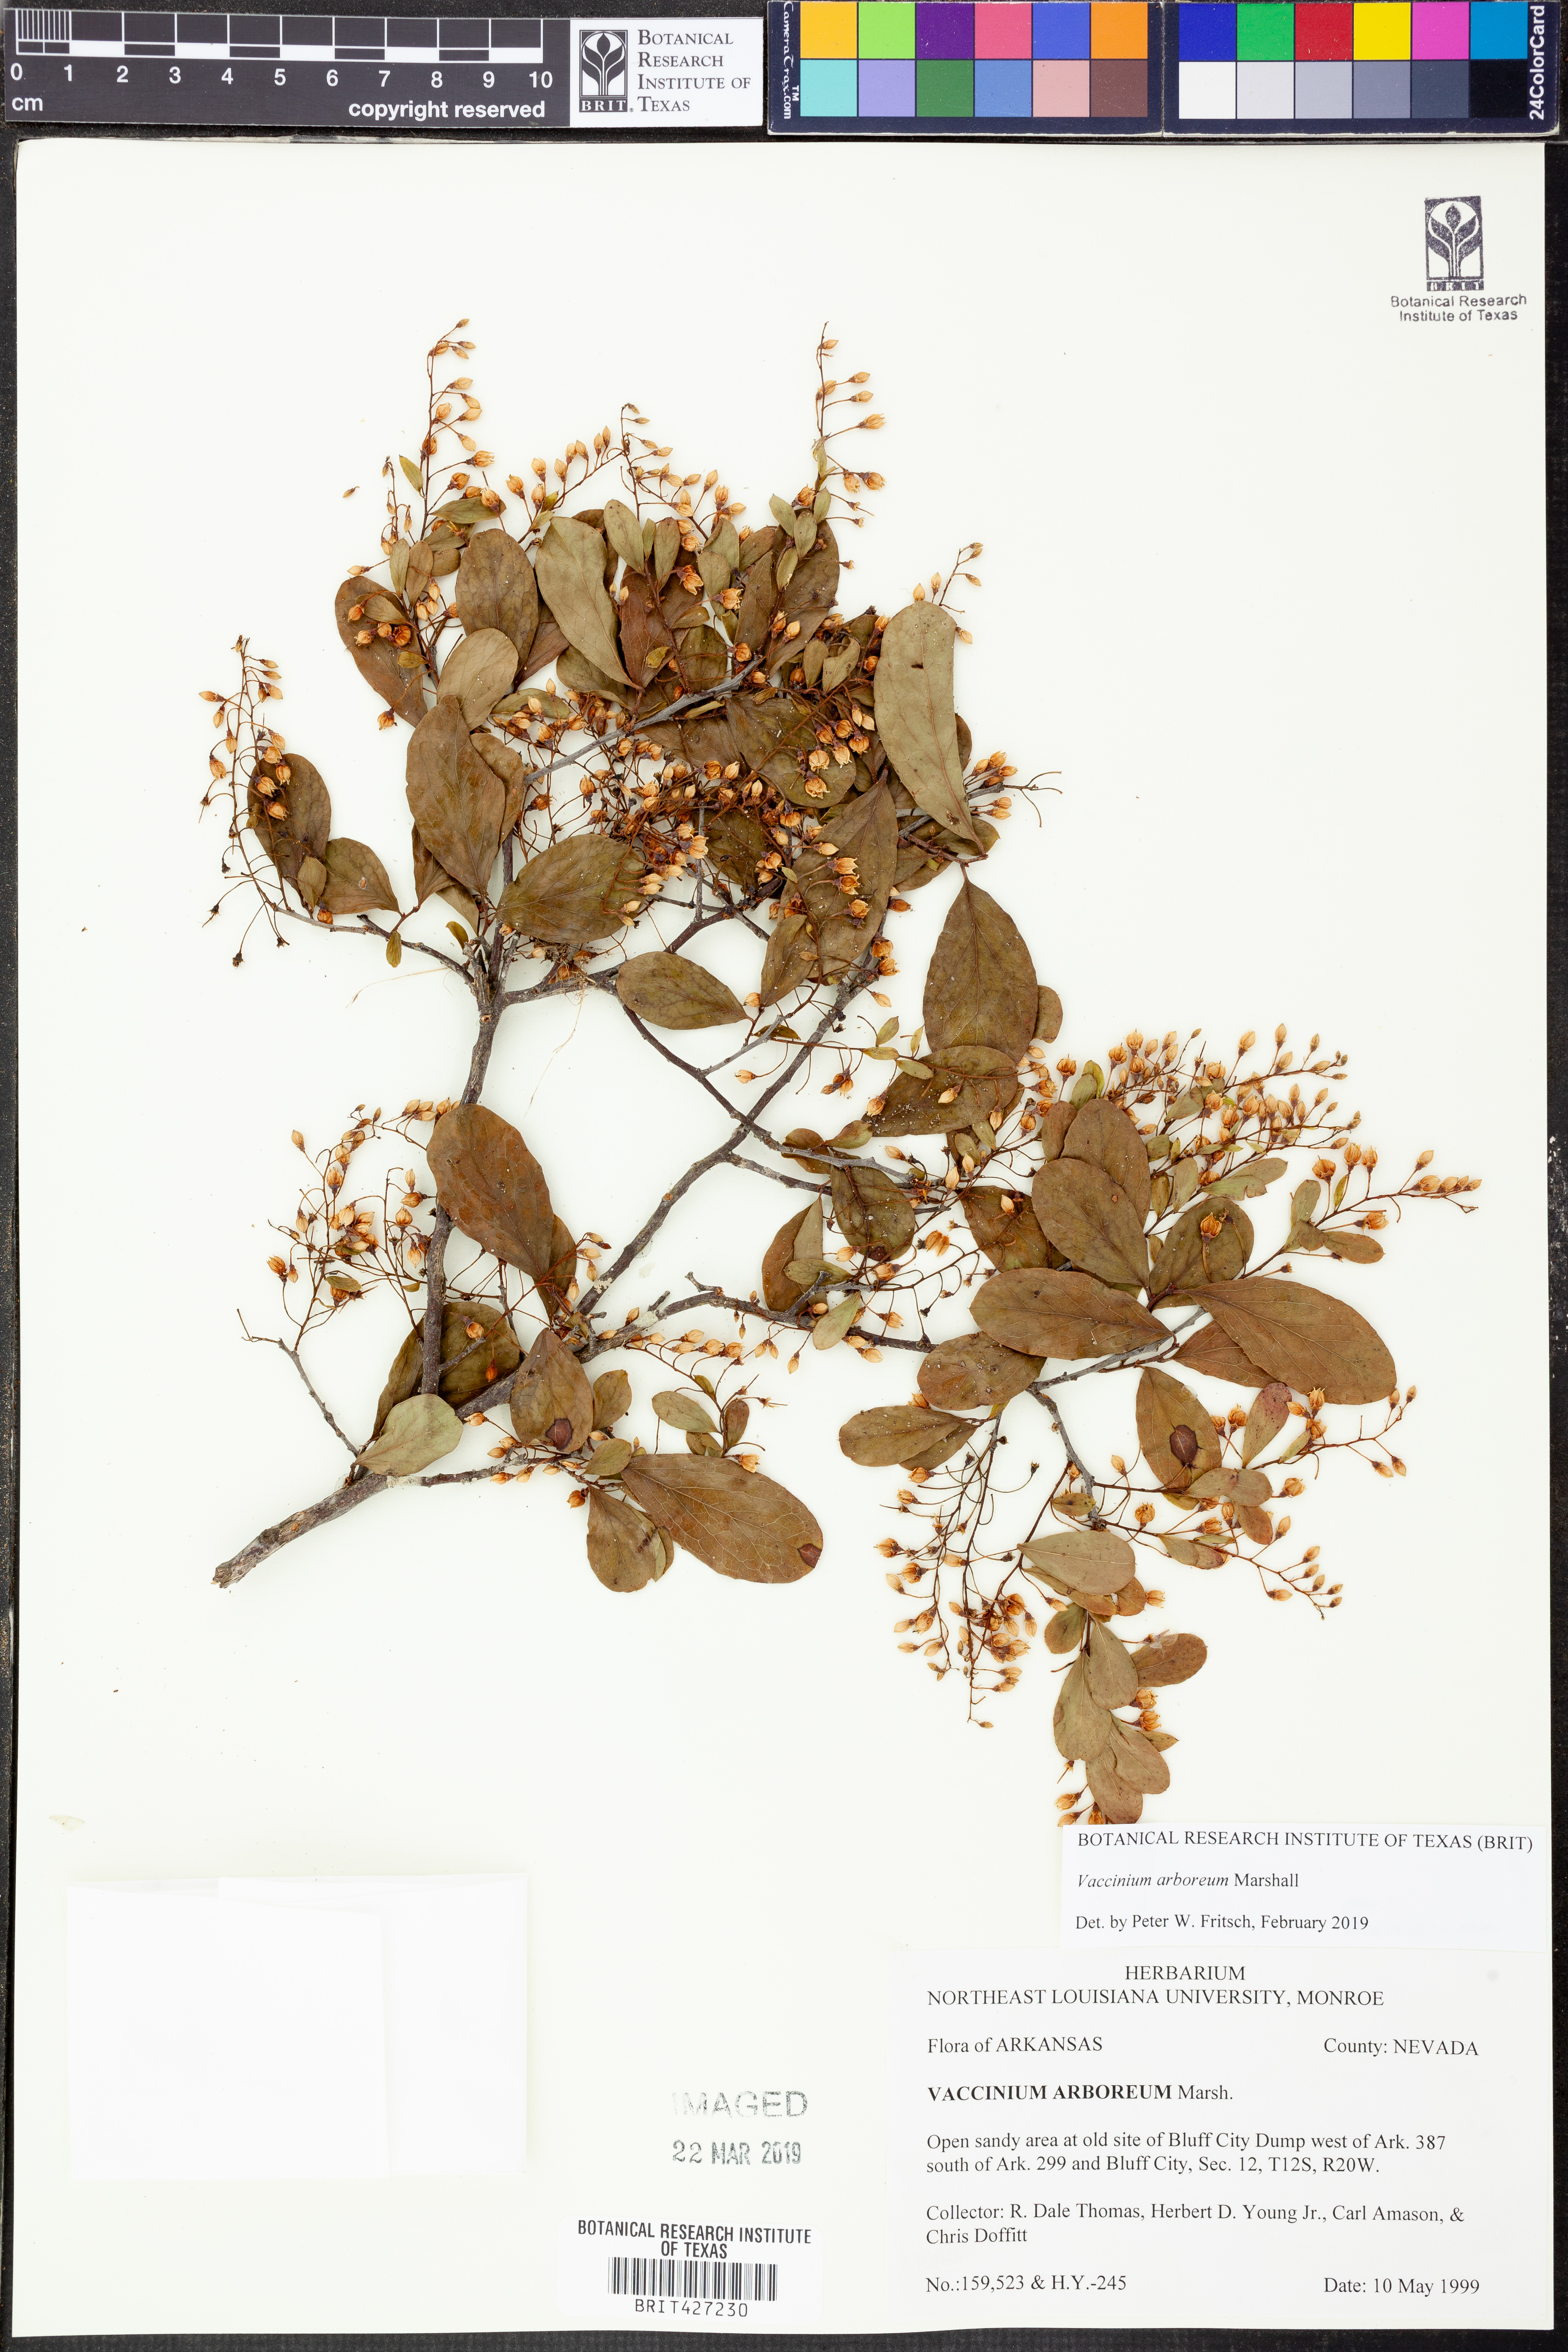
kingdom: Plantae
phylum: Tracheophyta
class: Magnoliopsida
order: Ericales
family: Ericaceae
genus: Vaccinium
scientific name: Vaccinium arboreum
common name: Farkleberry
